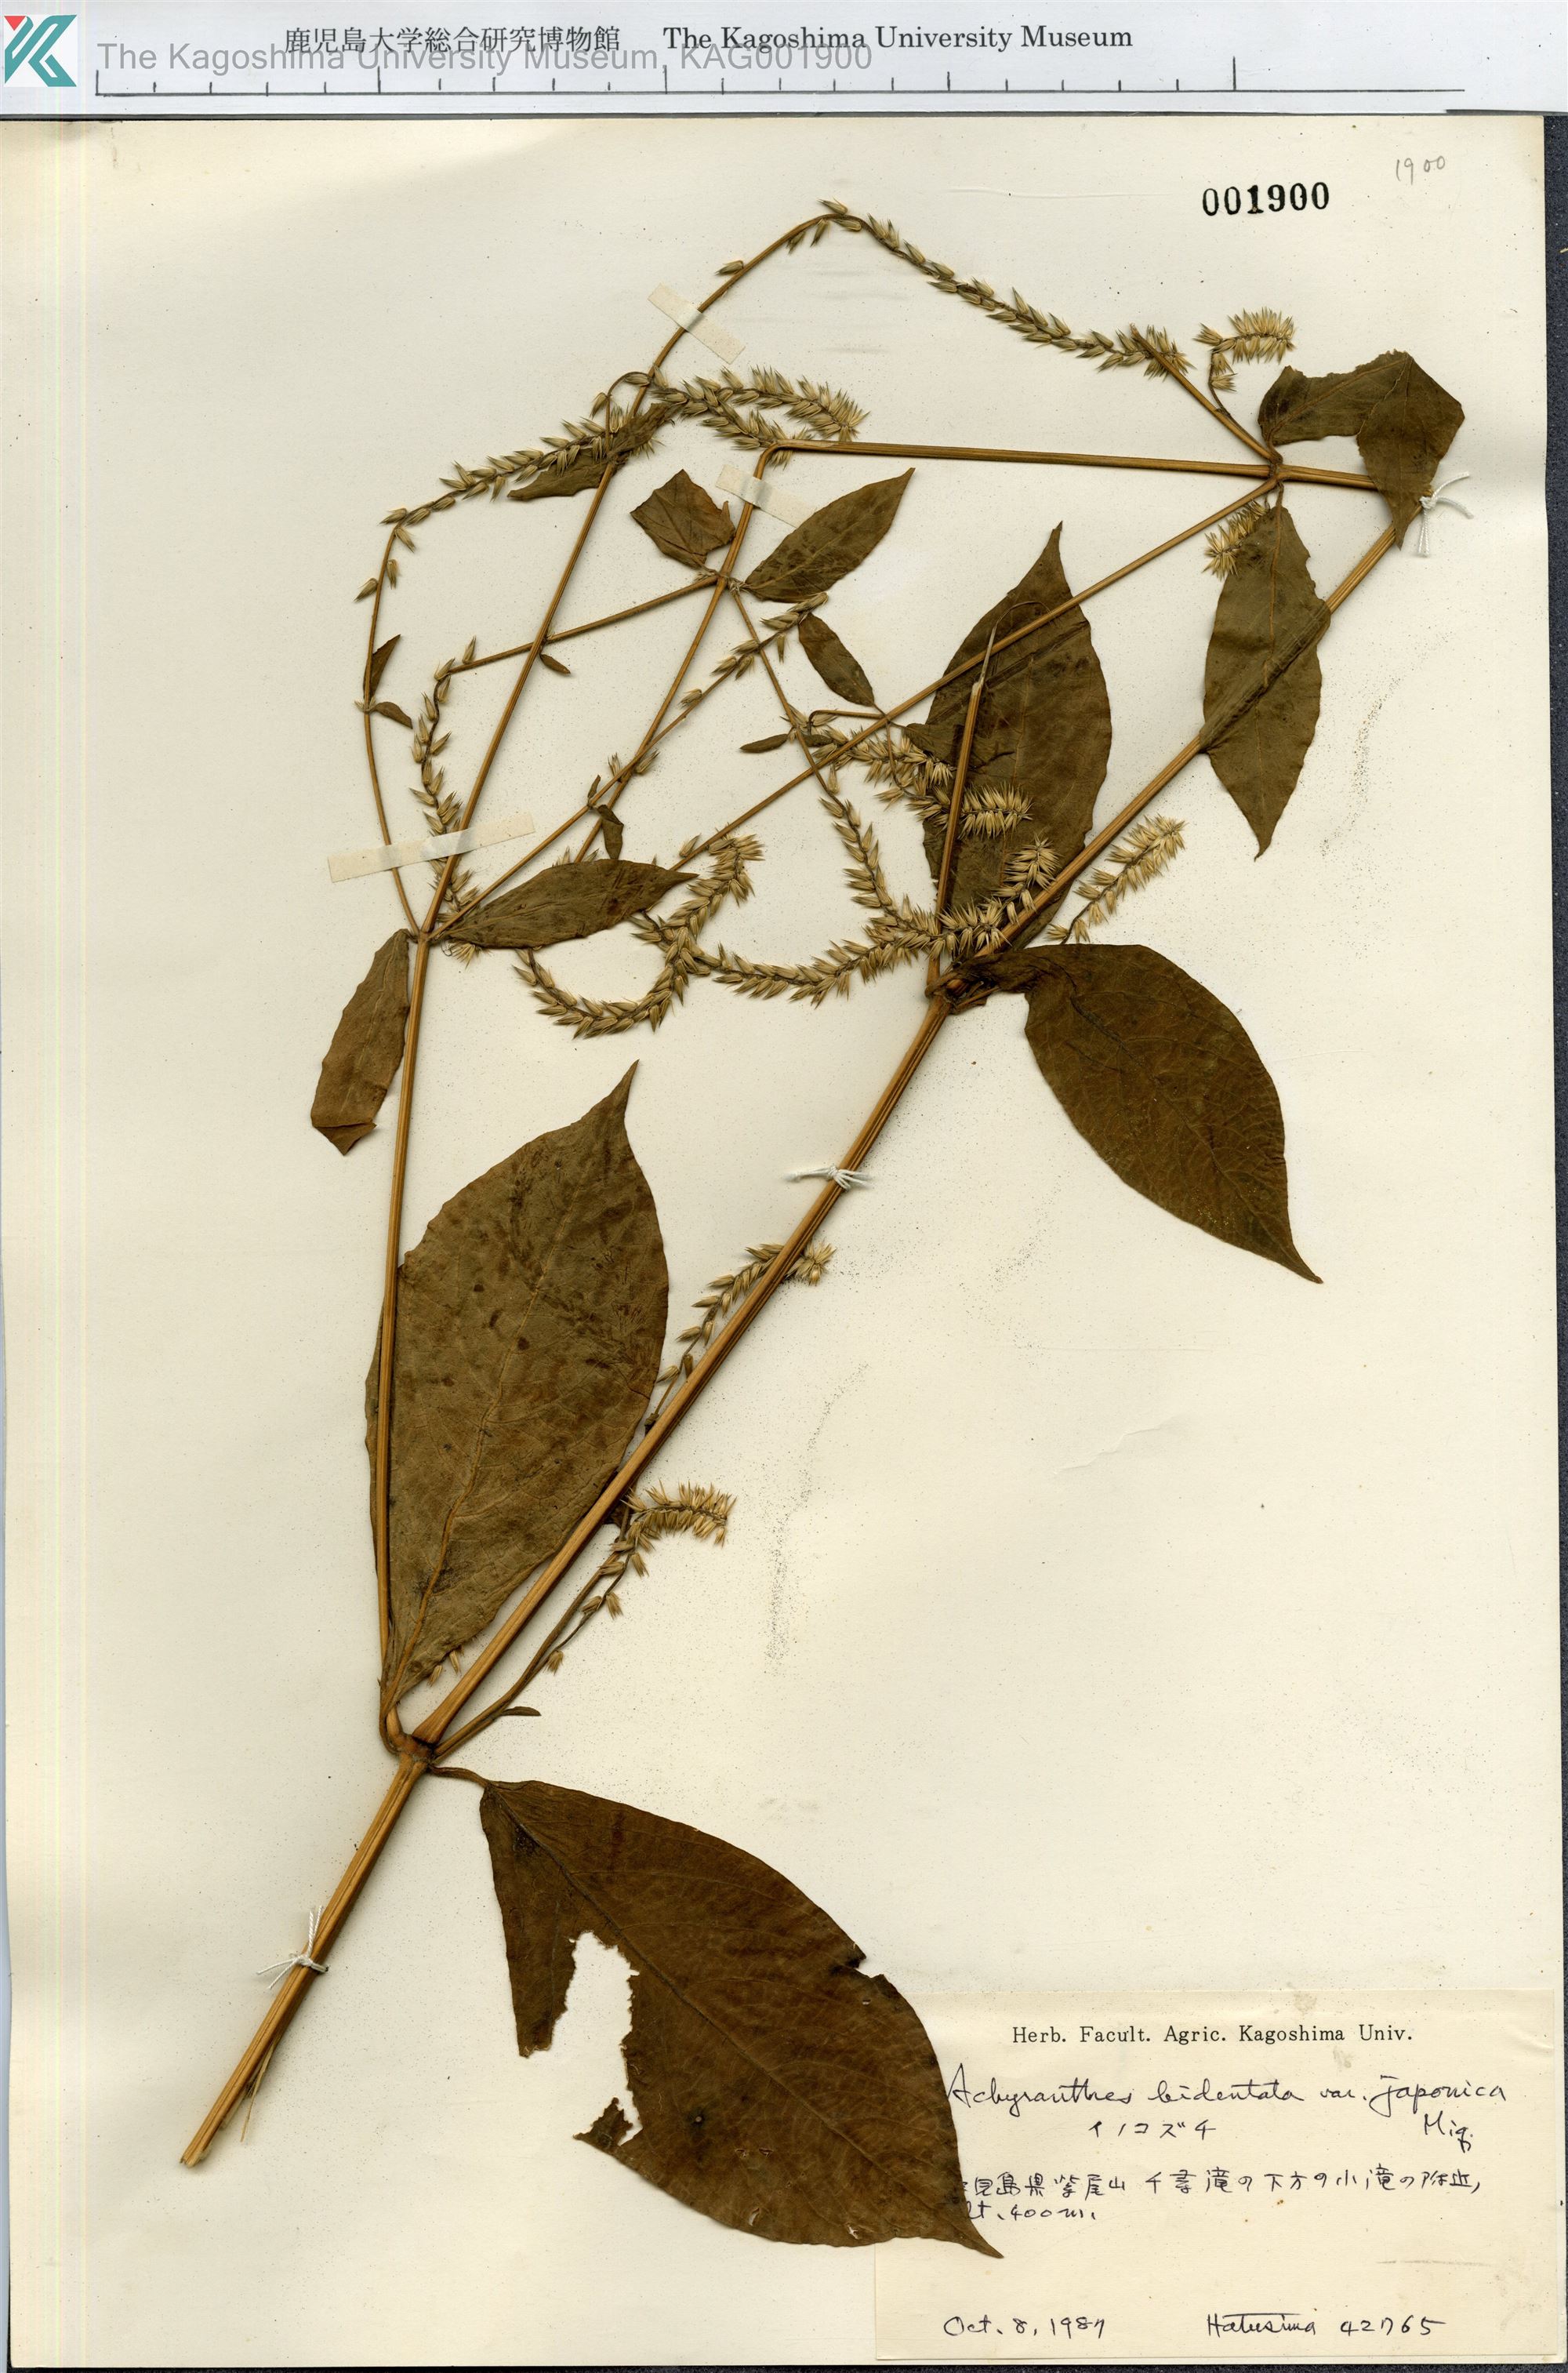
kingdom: Plantae
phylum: Tracheophyta
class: Magnoliopsida
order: Caryophyllales
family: Amaranthaceae
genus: Achyranthes
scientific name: Achyranthes bidentata
